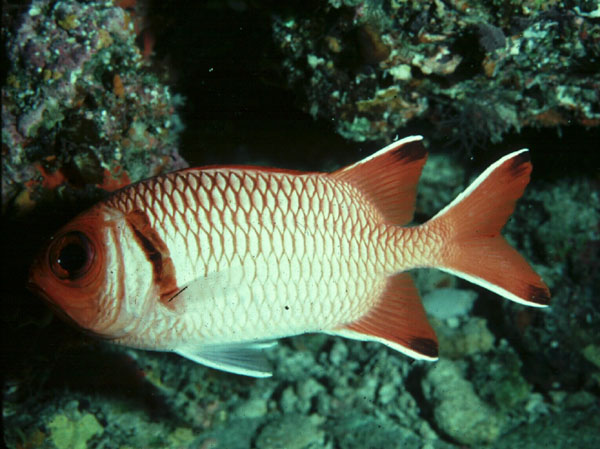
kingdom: Animalia
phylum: Chordata
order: Beryciformes
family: Holocentridae
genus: Myripristis
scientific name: Myripristis botche
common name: Blacktip soldierfish
